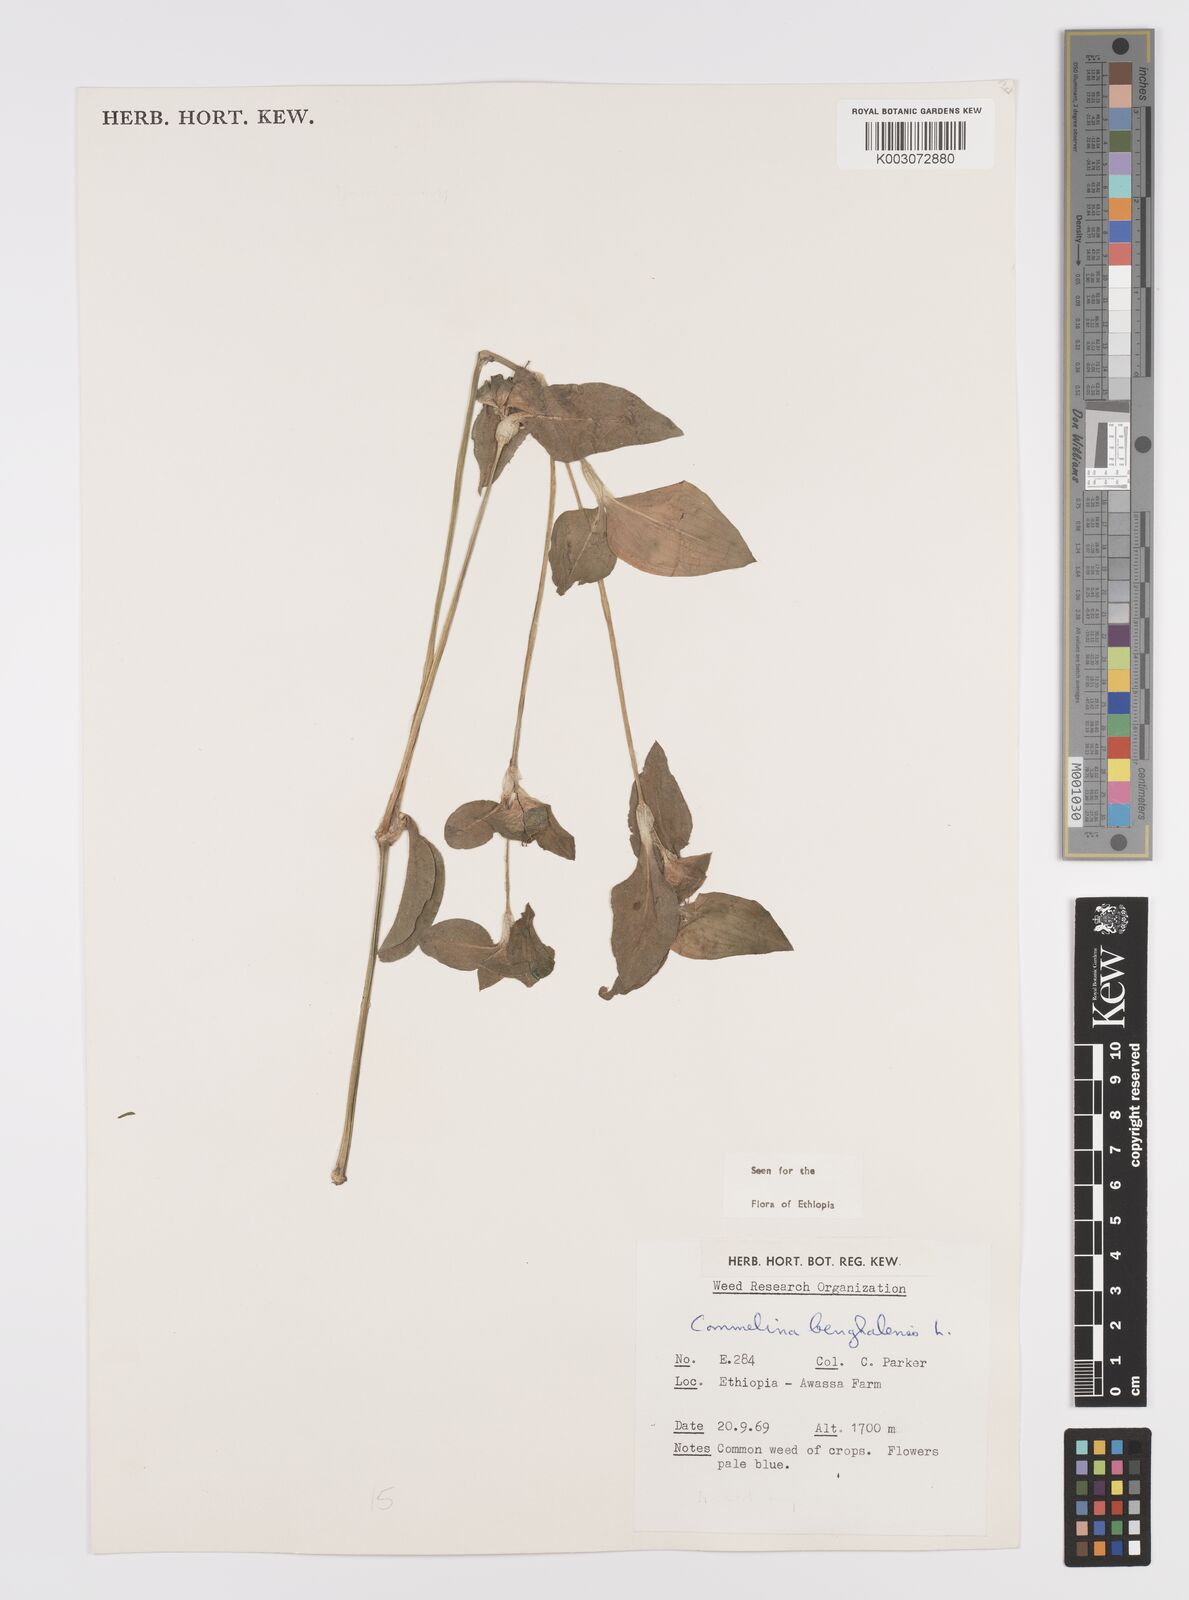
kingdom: Plantae
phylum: Tracheophyta
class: Liliopsida
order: Commelinales
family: Commelinaceae
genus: Commelina
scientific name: Commelina benghalensis
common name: Jio
